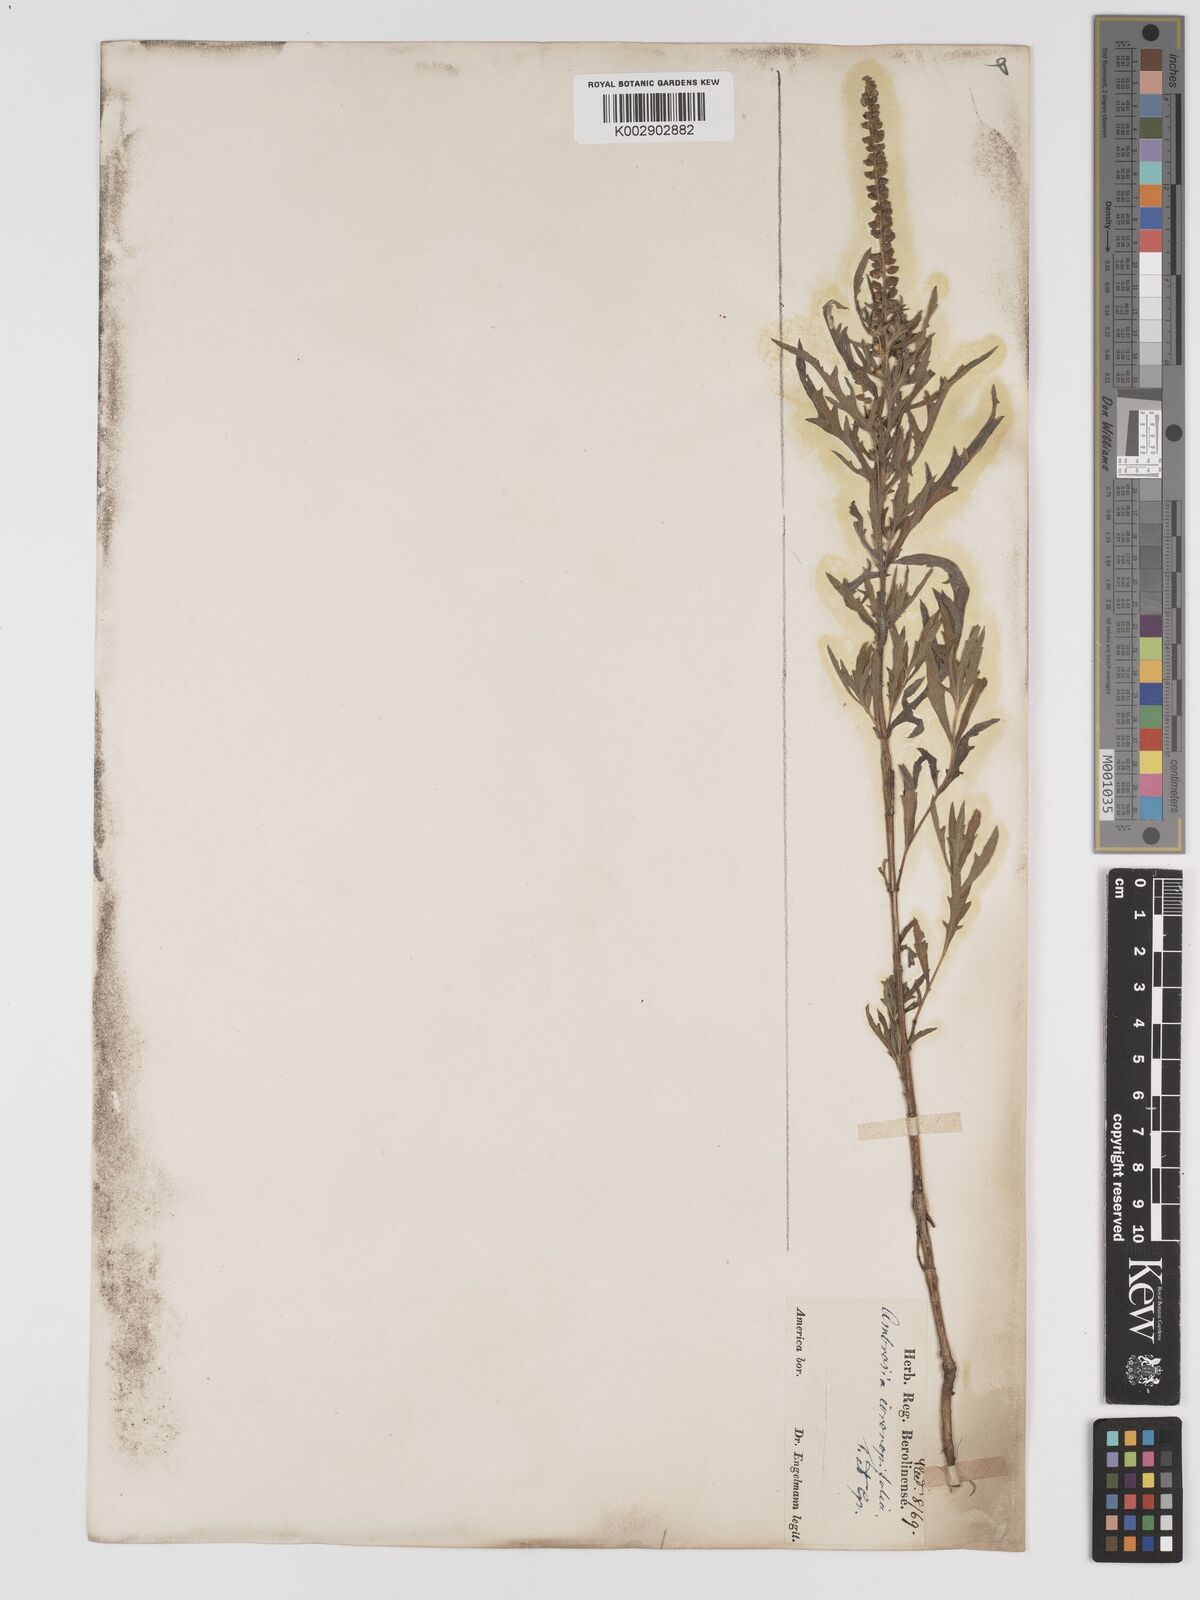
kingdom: Plantae
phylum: Tracheophyta
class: Magnoliopsida
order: Asterales
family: Asteraceae
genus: Ambrosia
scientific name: Ambrosia psilostachya
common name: Perennial ragweed
